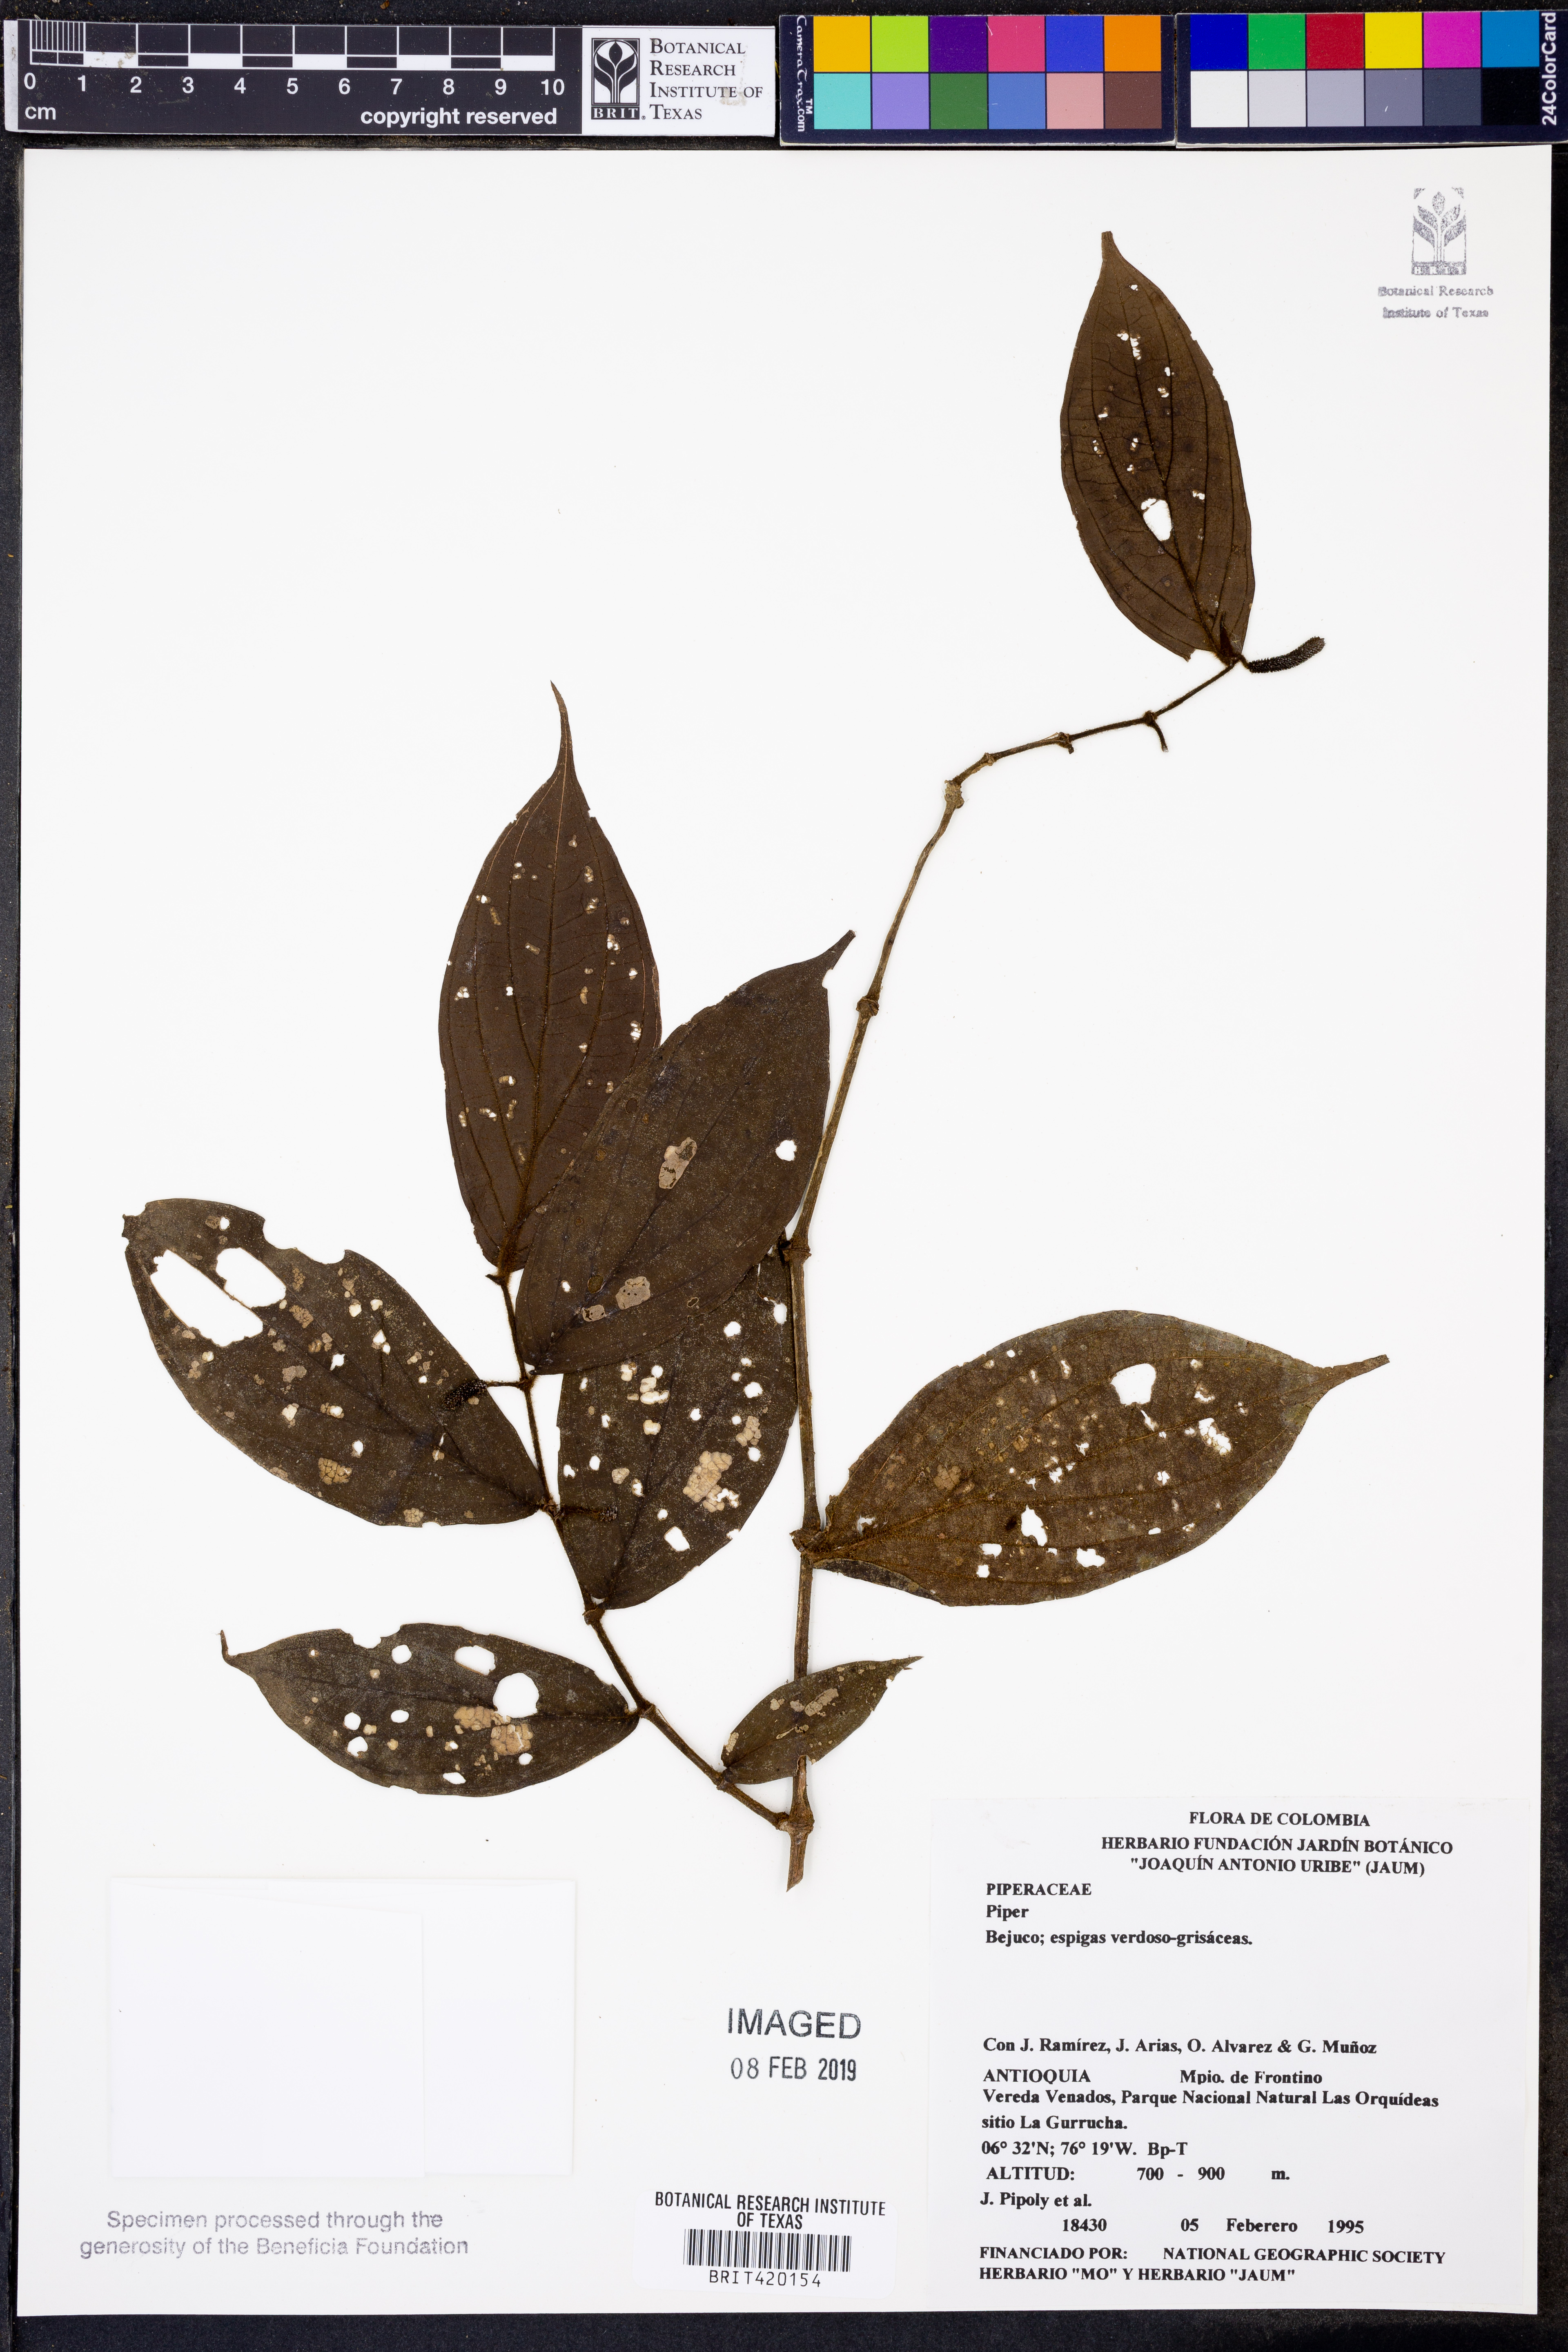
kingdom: Plantae
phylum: Tracheophyta
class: Magnoliopsida
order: Piperales
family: Piperaceae
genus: Piper
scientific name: Piper
